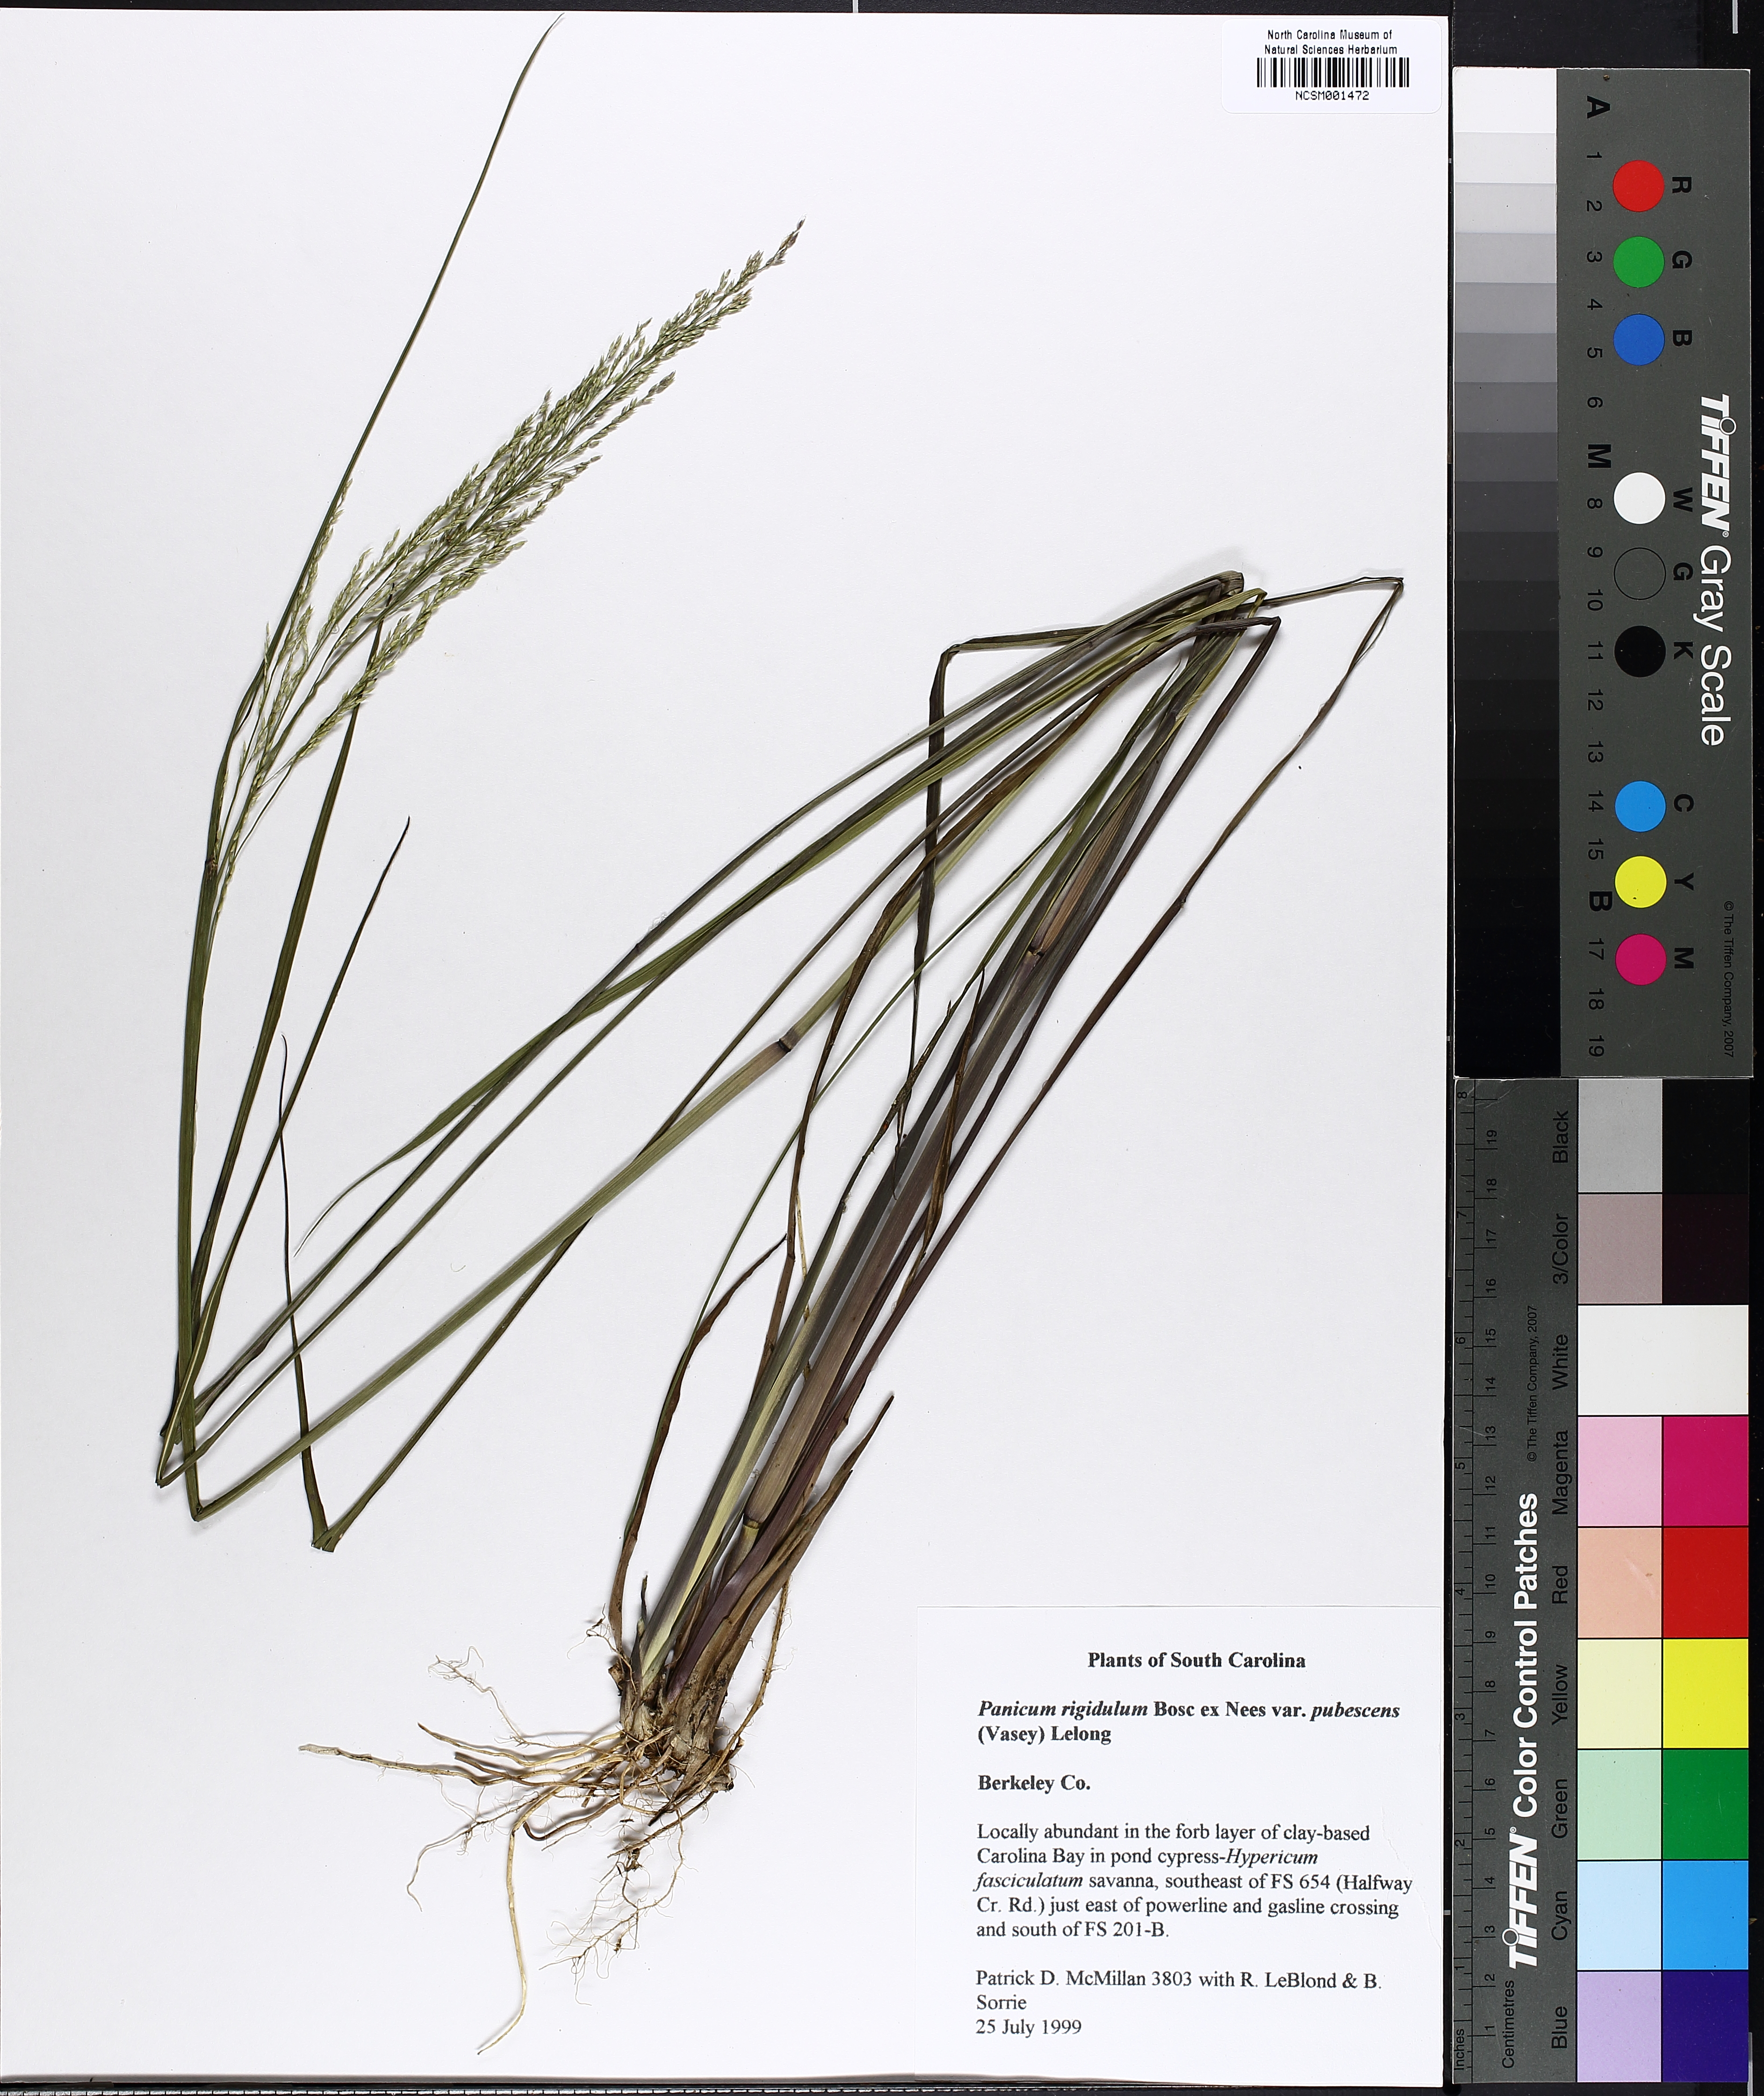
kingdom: Plantae
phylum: Tracheophyta
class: Liliopsida
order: Poales
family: Poaceae
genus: Coleataenia
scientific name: Coleataenia longifolia
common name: Long-leaved panicgrass
